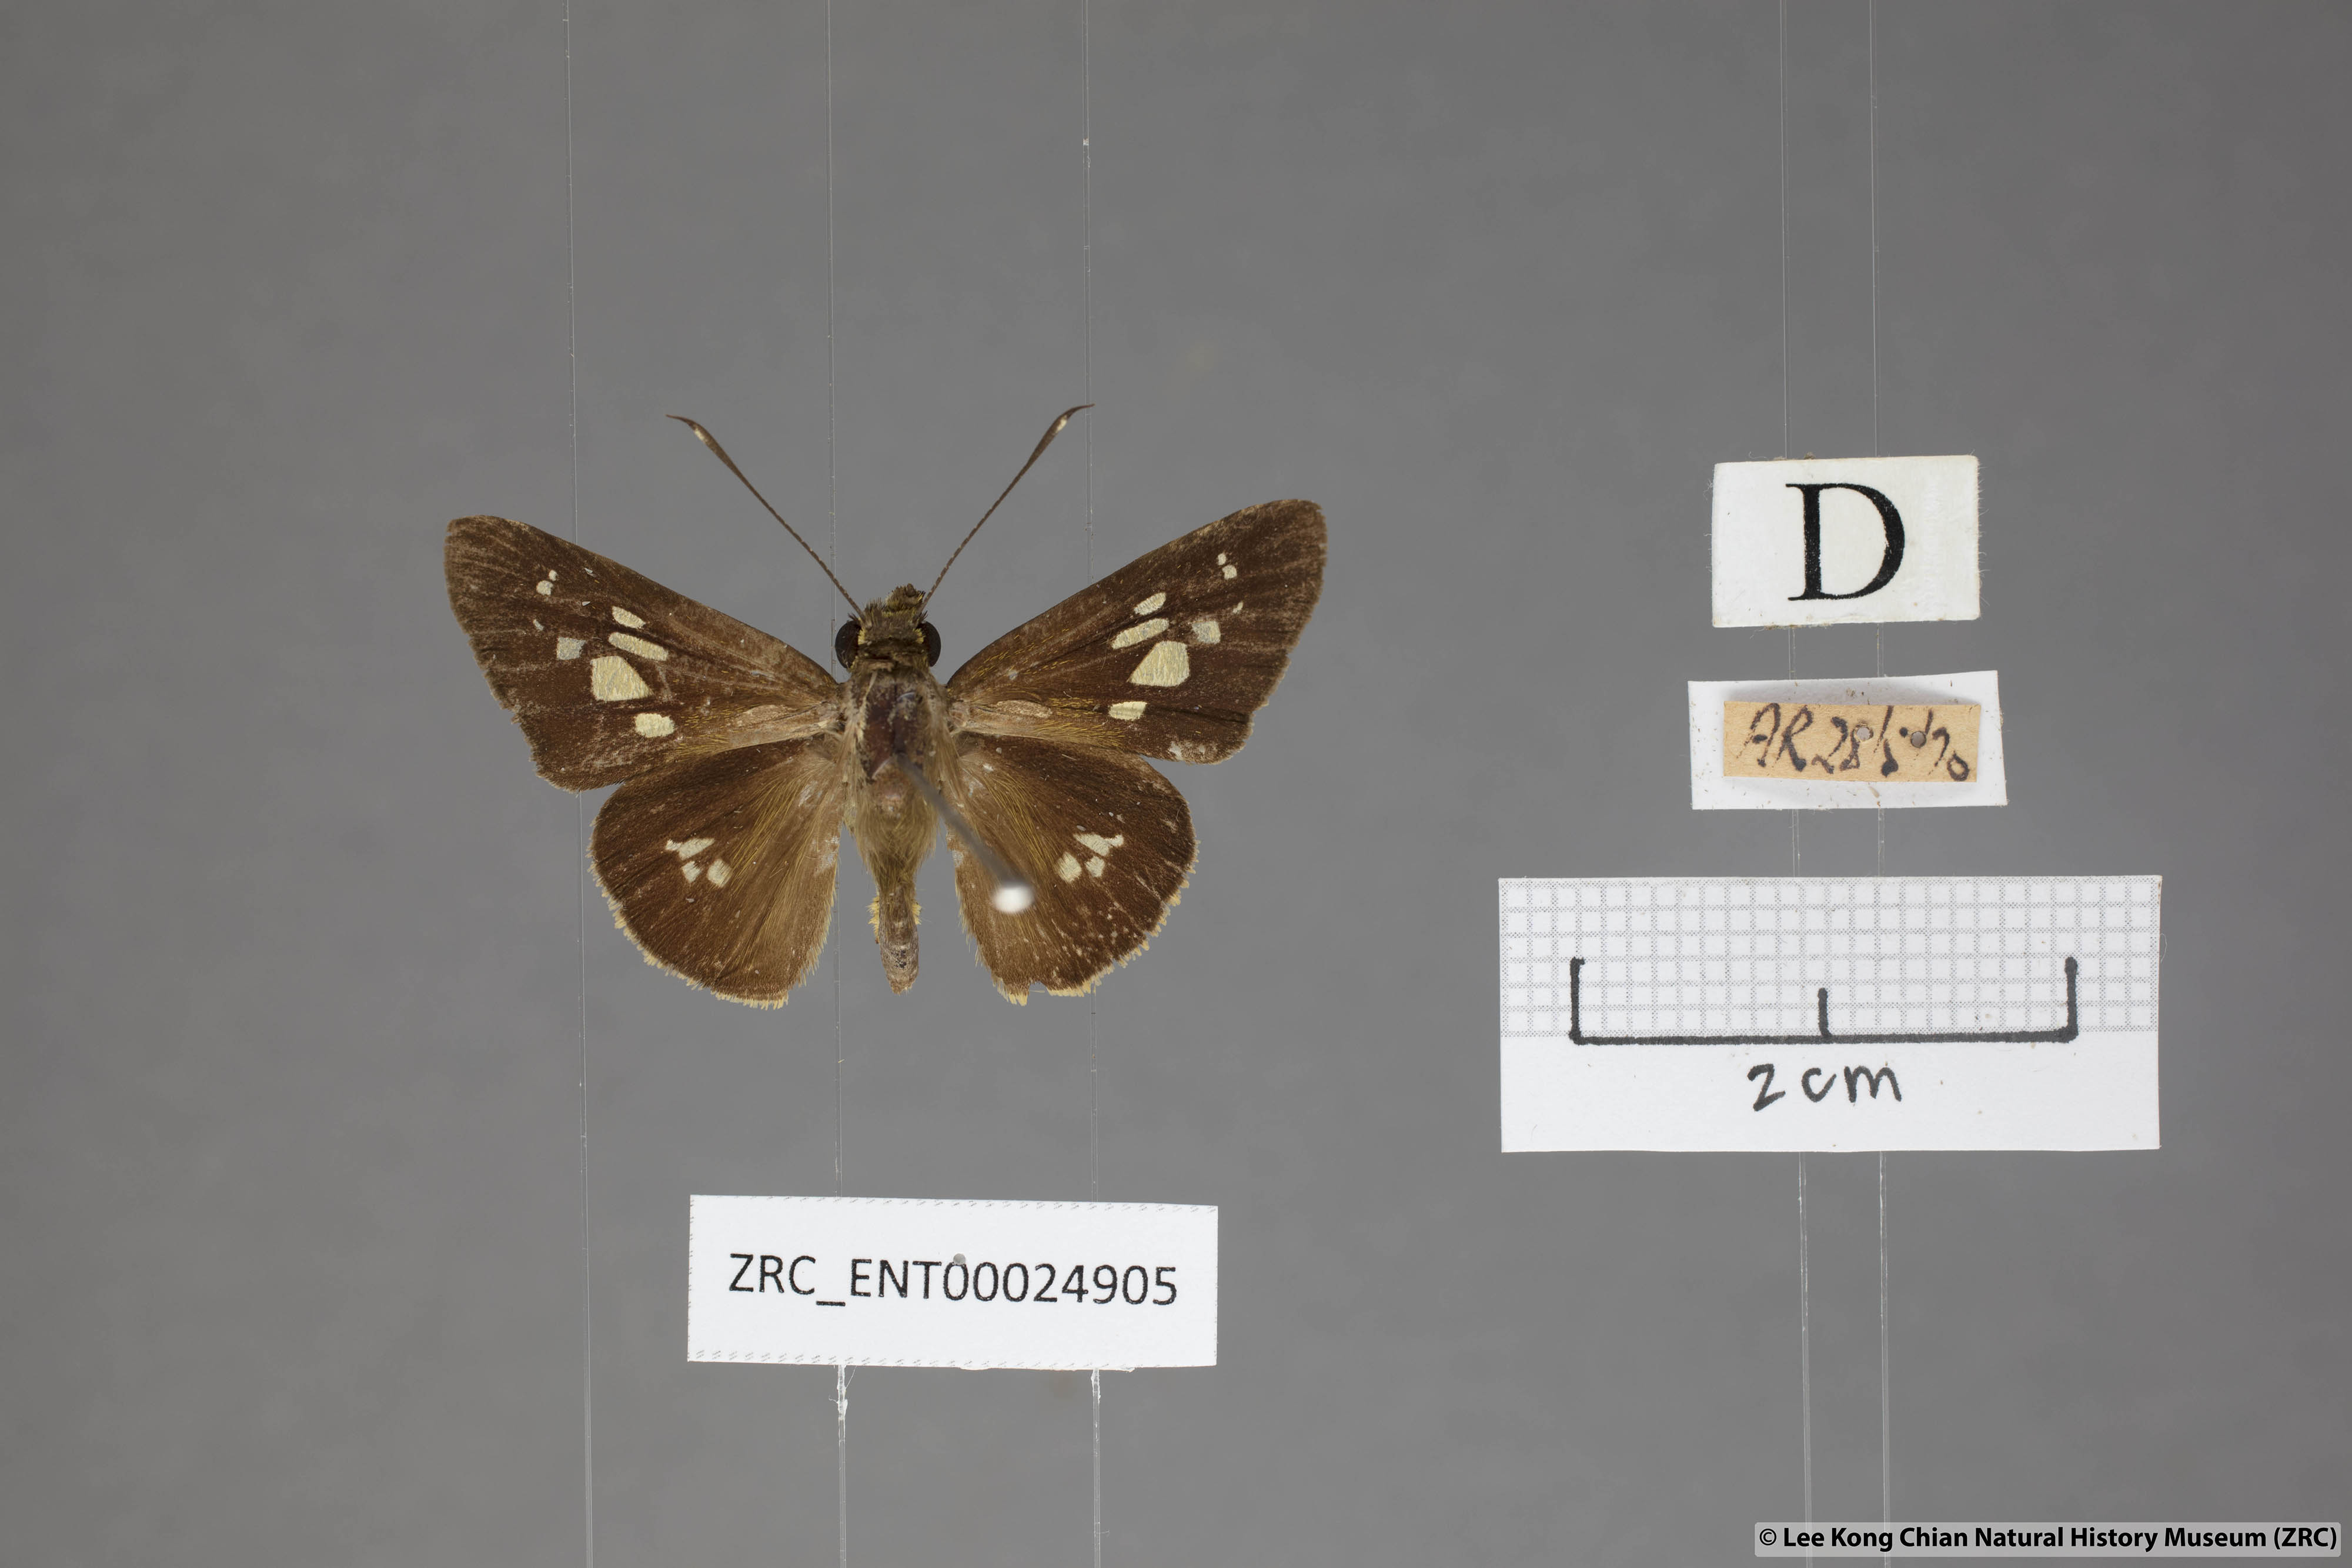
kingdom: Animalia
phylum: Arthropoda
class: Insecta
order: Lepidoptera
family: Hesperiidae
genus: Isma
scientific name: Isma umbrosa
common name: Large long-banded flitter
